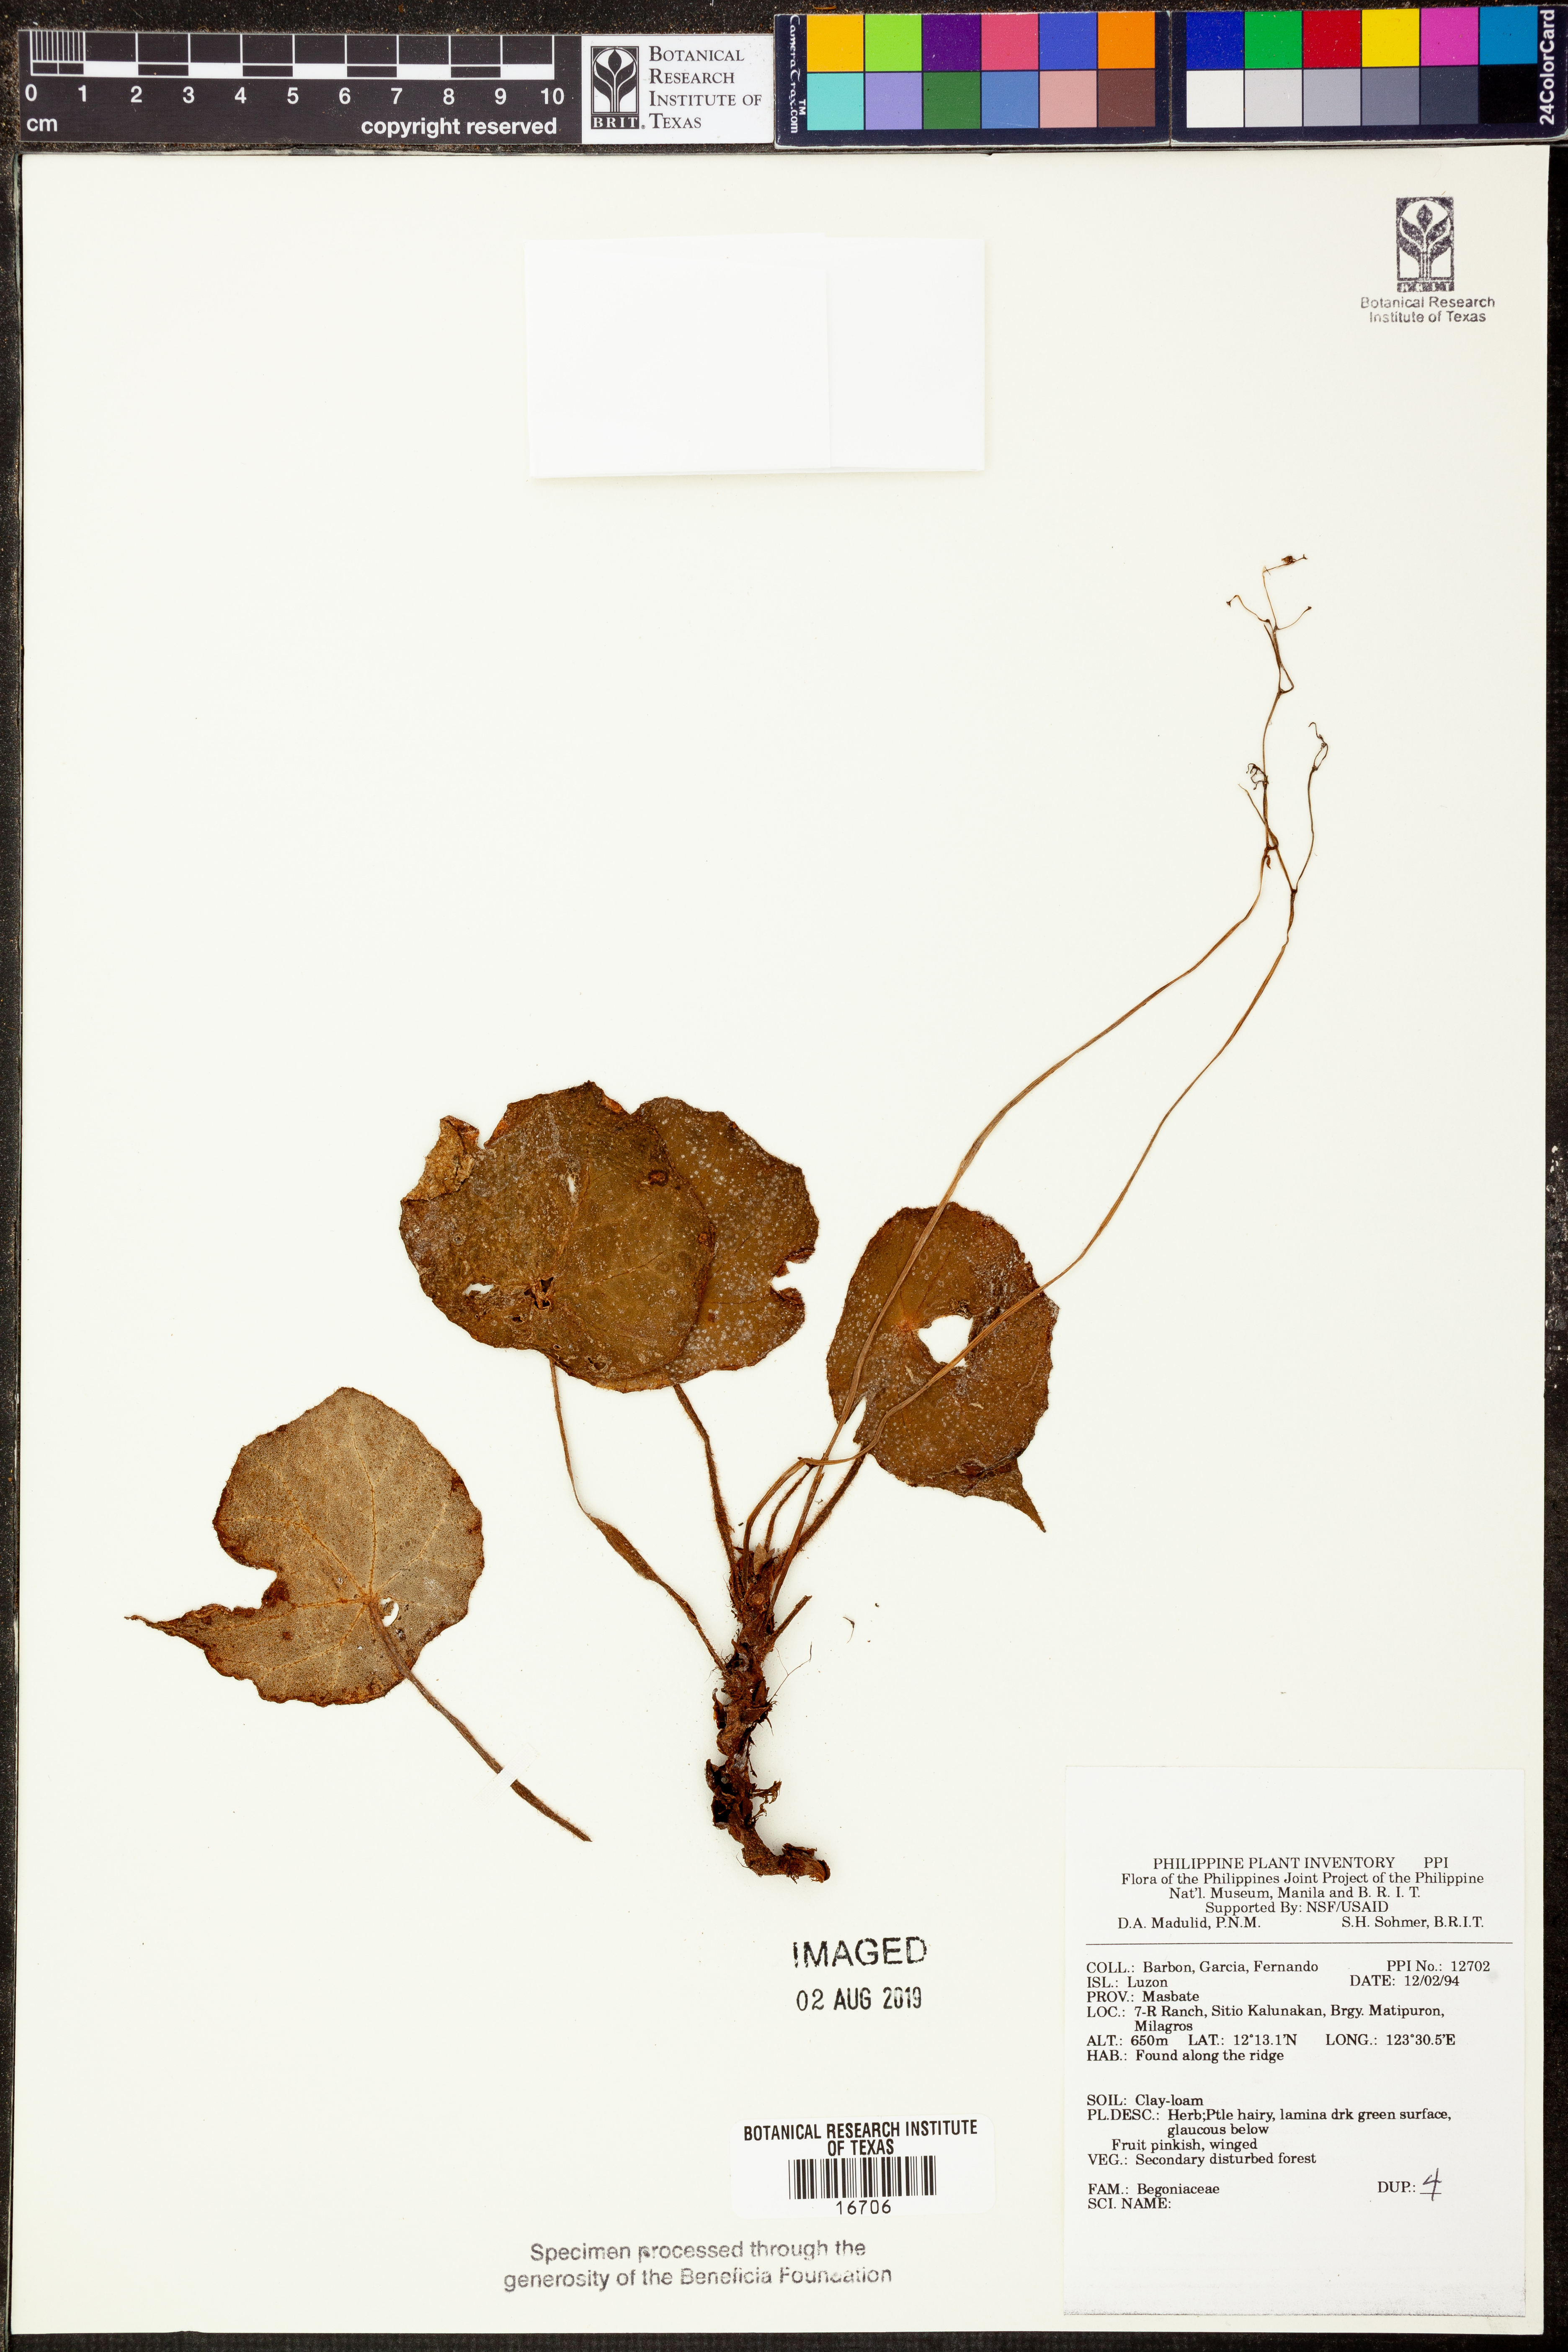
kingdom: Plantae
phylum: Tracheophyta
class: Magnoliopsida
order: Cucurbitales
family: Begoniaceae
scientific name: Begoniaceae
